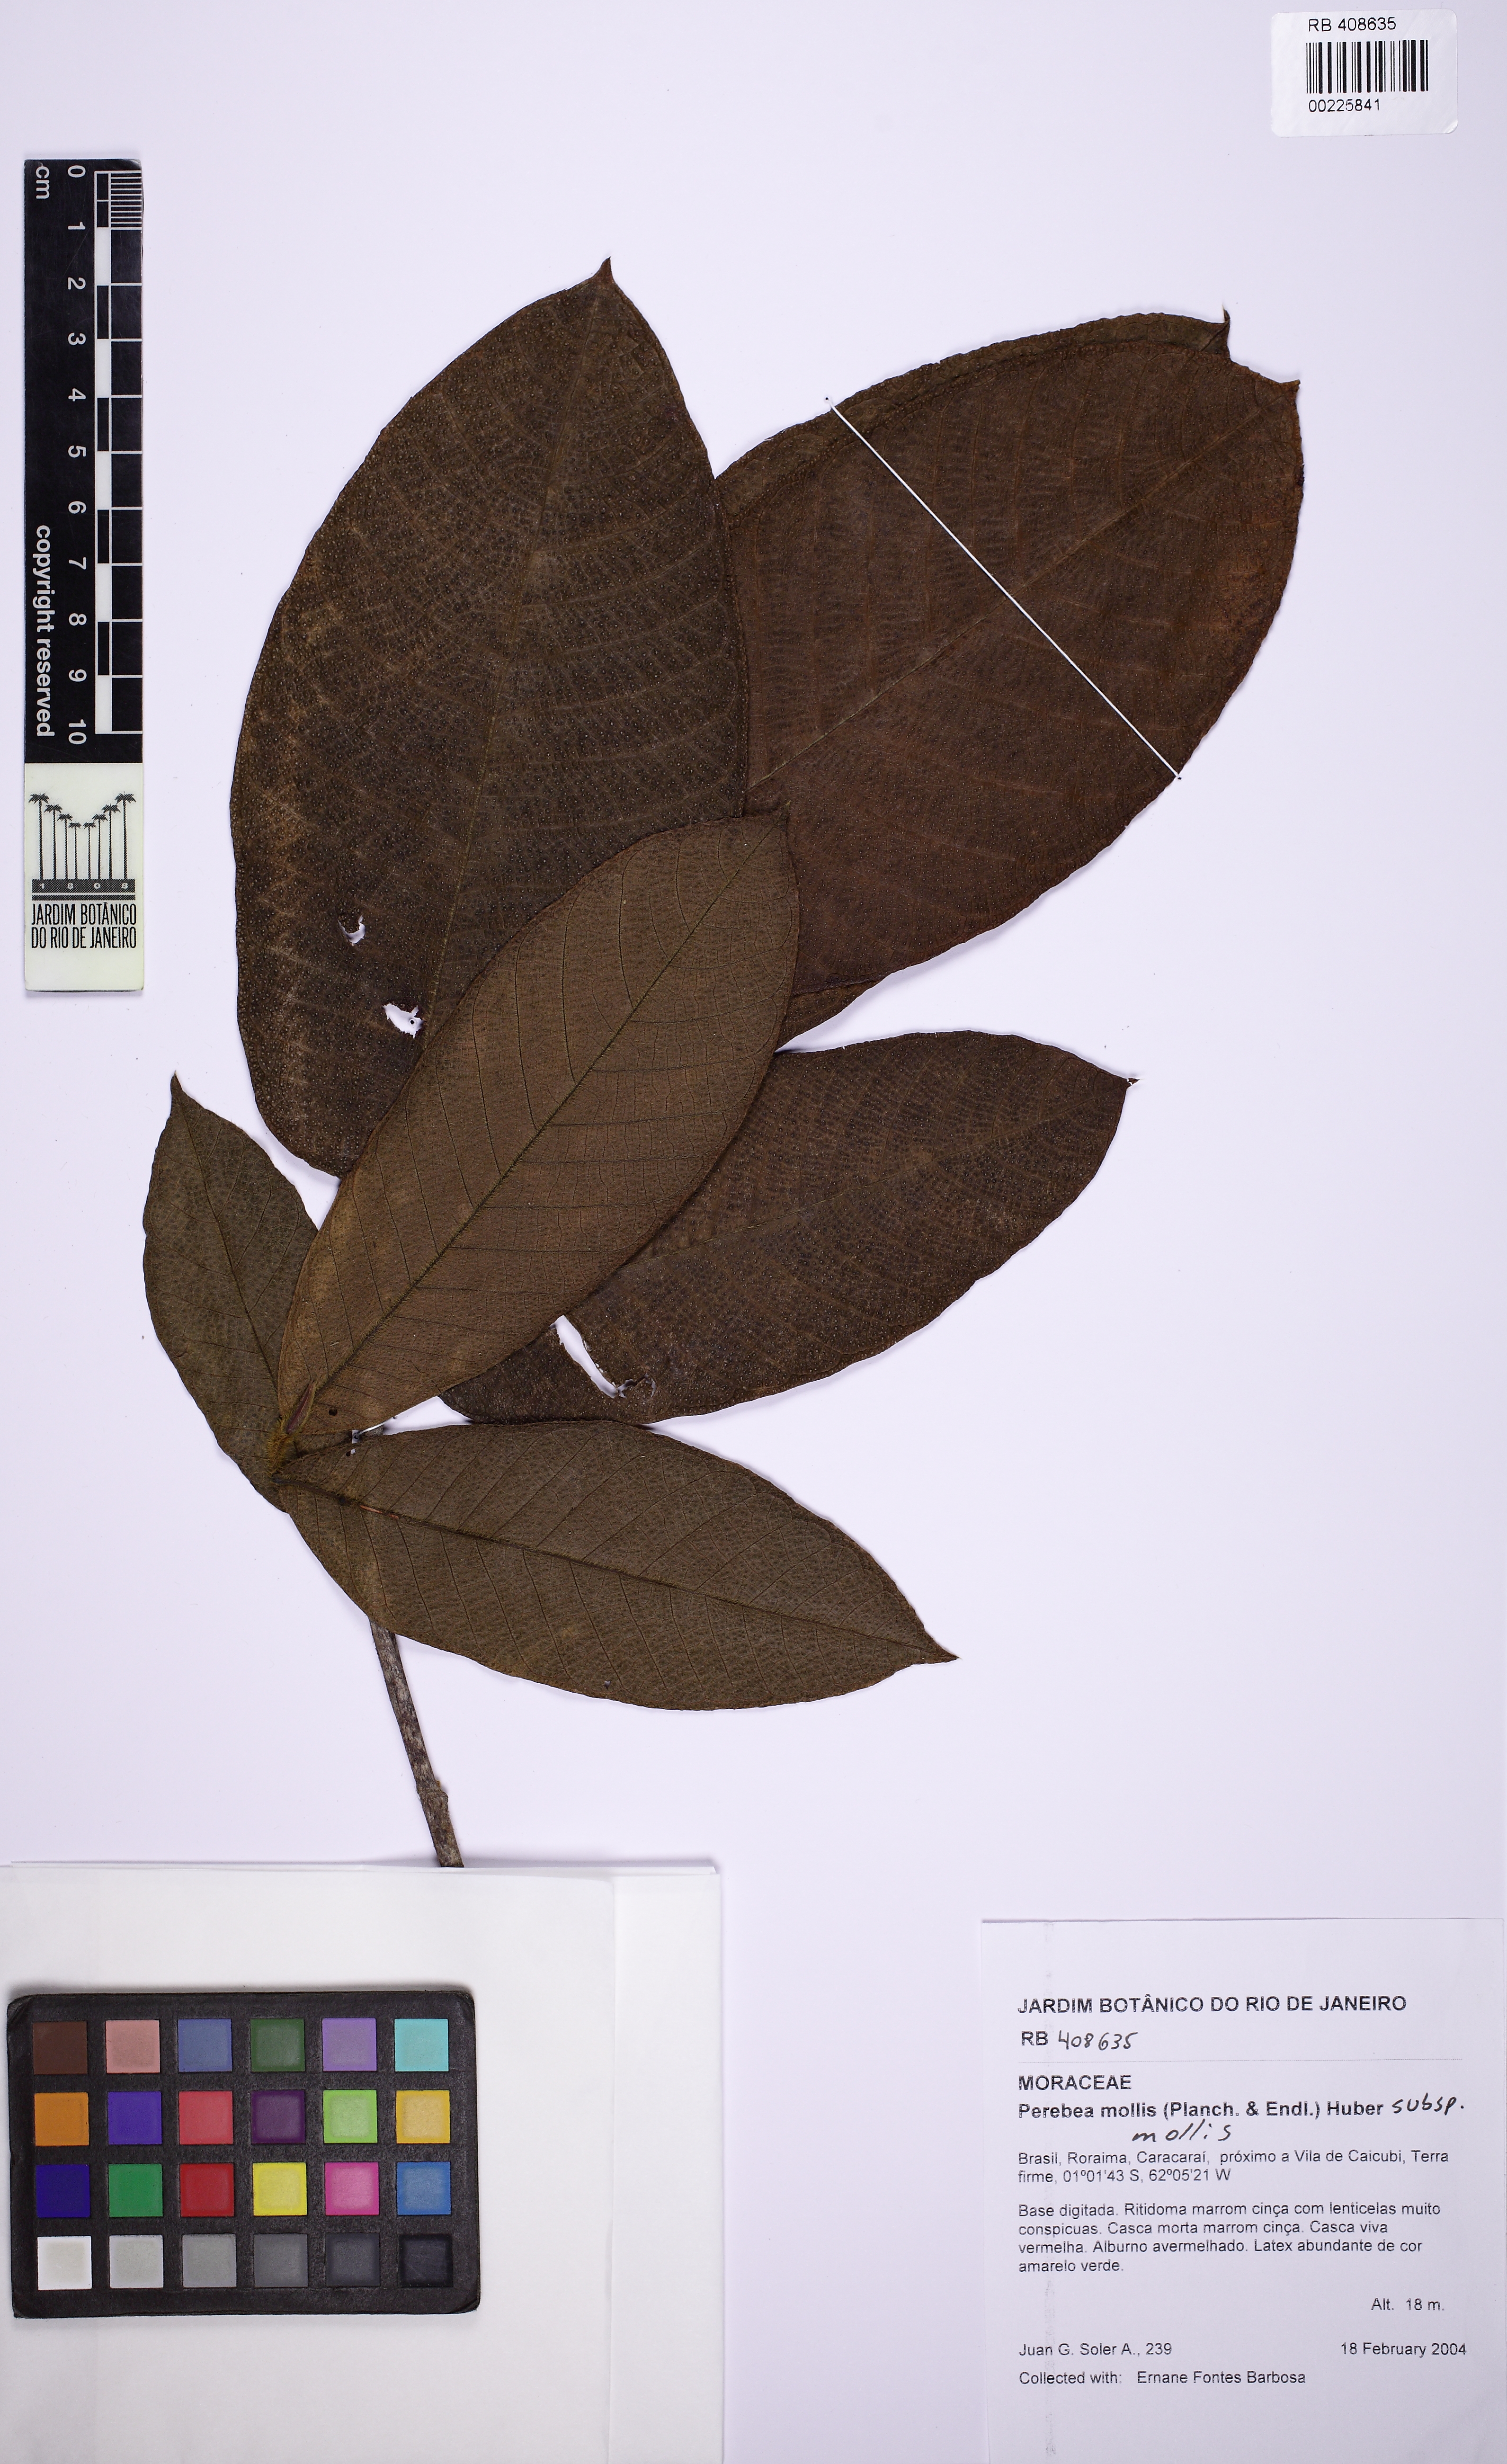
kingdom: Plantae
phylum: Tracheophyta
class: Magnoliopsida
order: Rosales
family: Moraceae
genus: Perebea
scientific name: Perebea mollis
